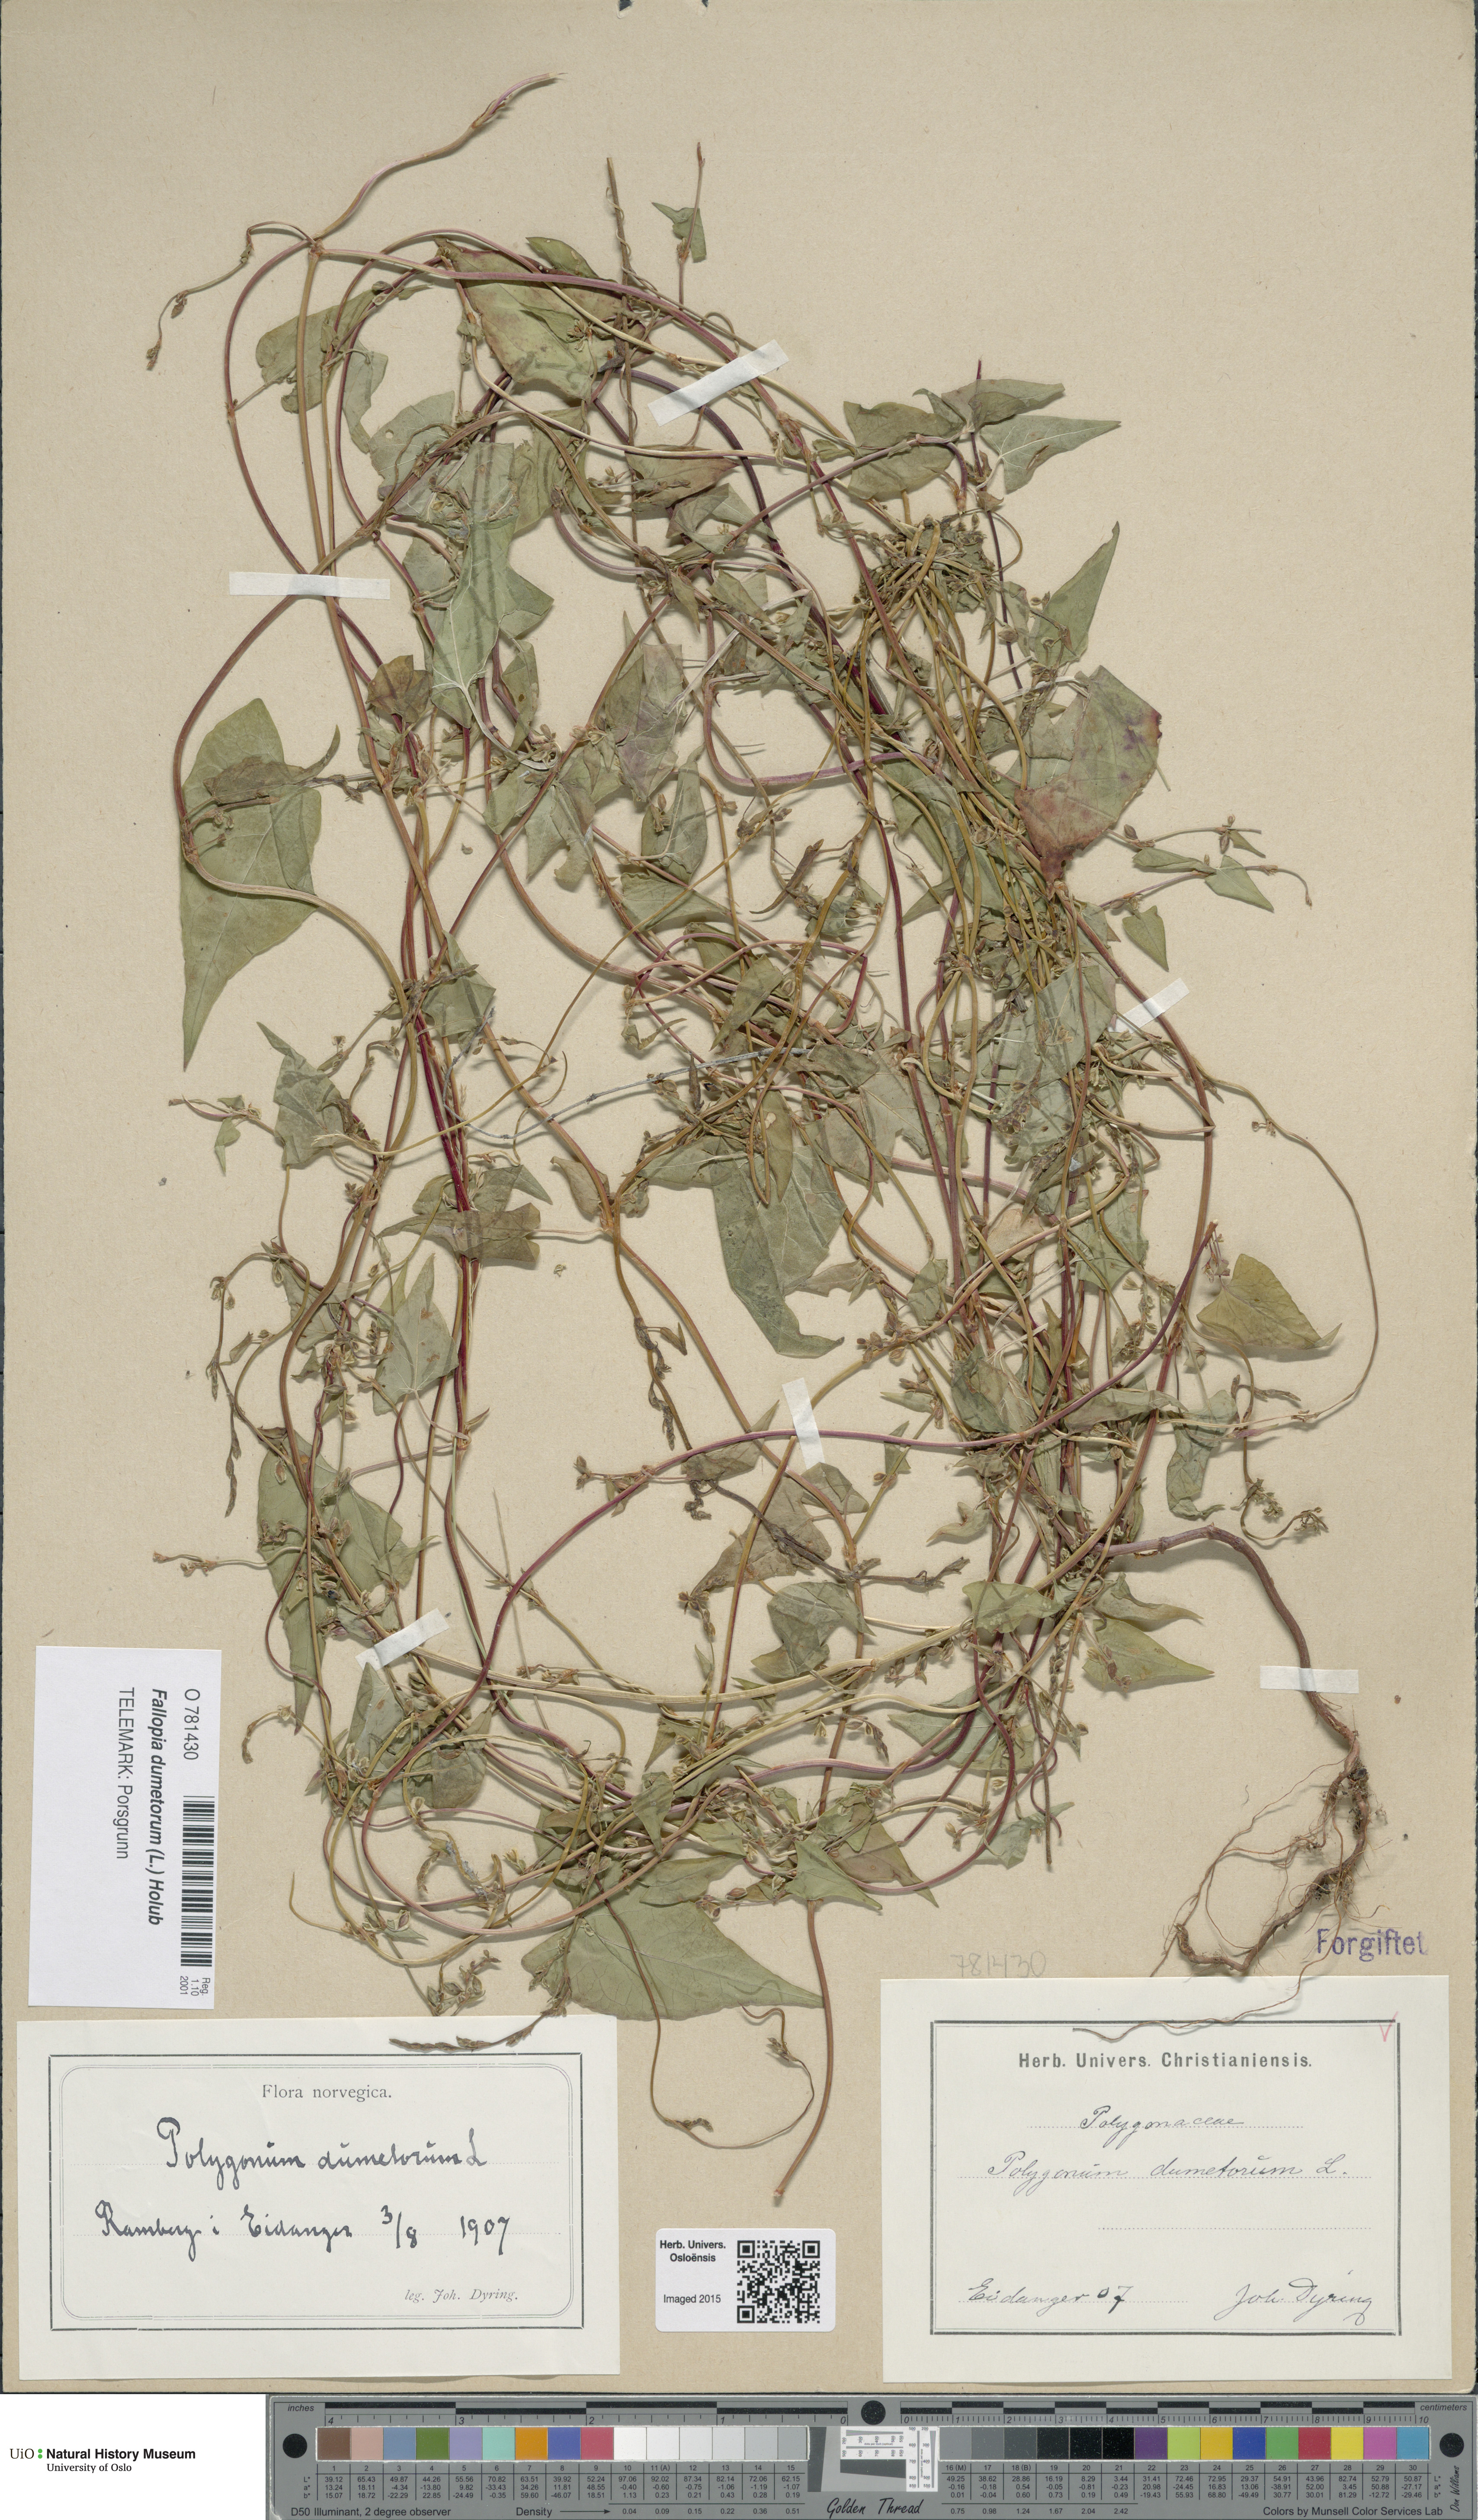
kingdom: Plantae
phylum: Tracheophyta
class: Magnoliopsida
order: Caryophyllales
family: Polygonaceae
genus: Fallopia
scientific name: Fallopia dumetorum
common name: Copse-bindweed
